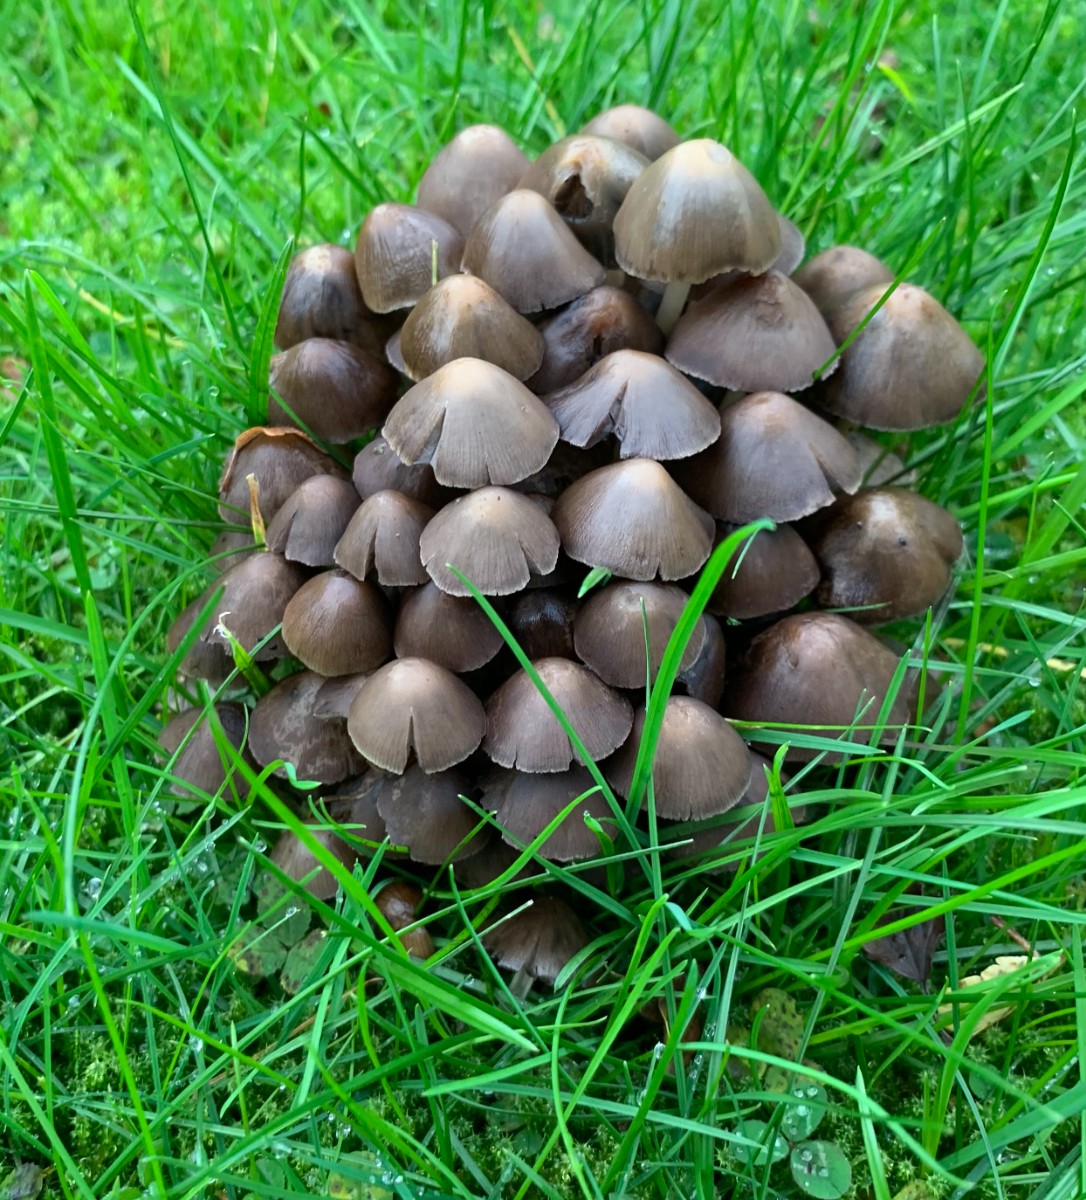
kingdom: Fungi
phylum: Basidiomycota
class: Agaricomycetes
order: Agaricales
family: Psathyrellaceae
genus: Britzelmayria
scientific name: Britzelmayria multipedata
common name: knippe-mørkhat
